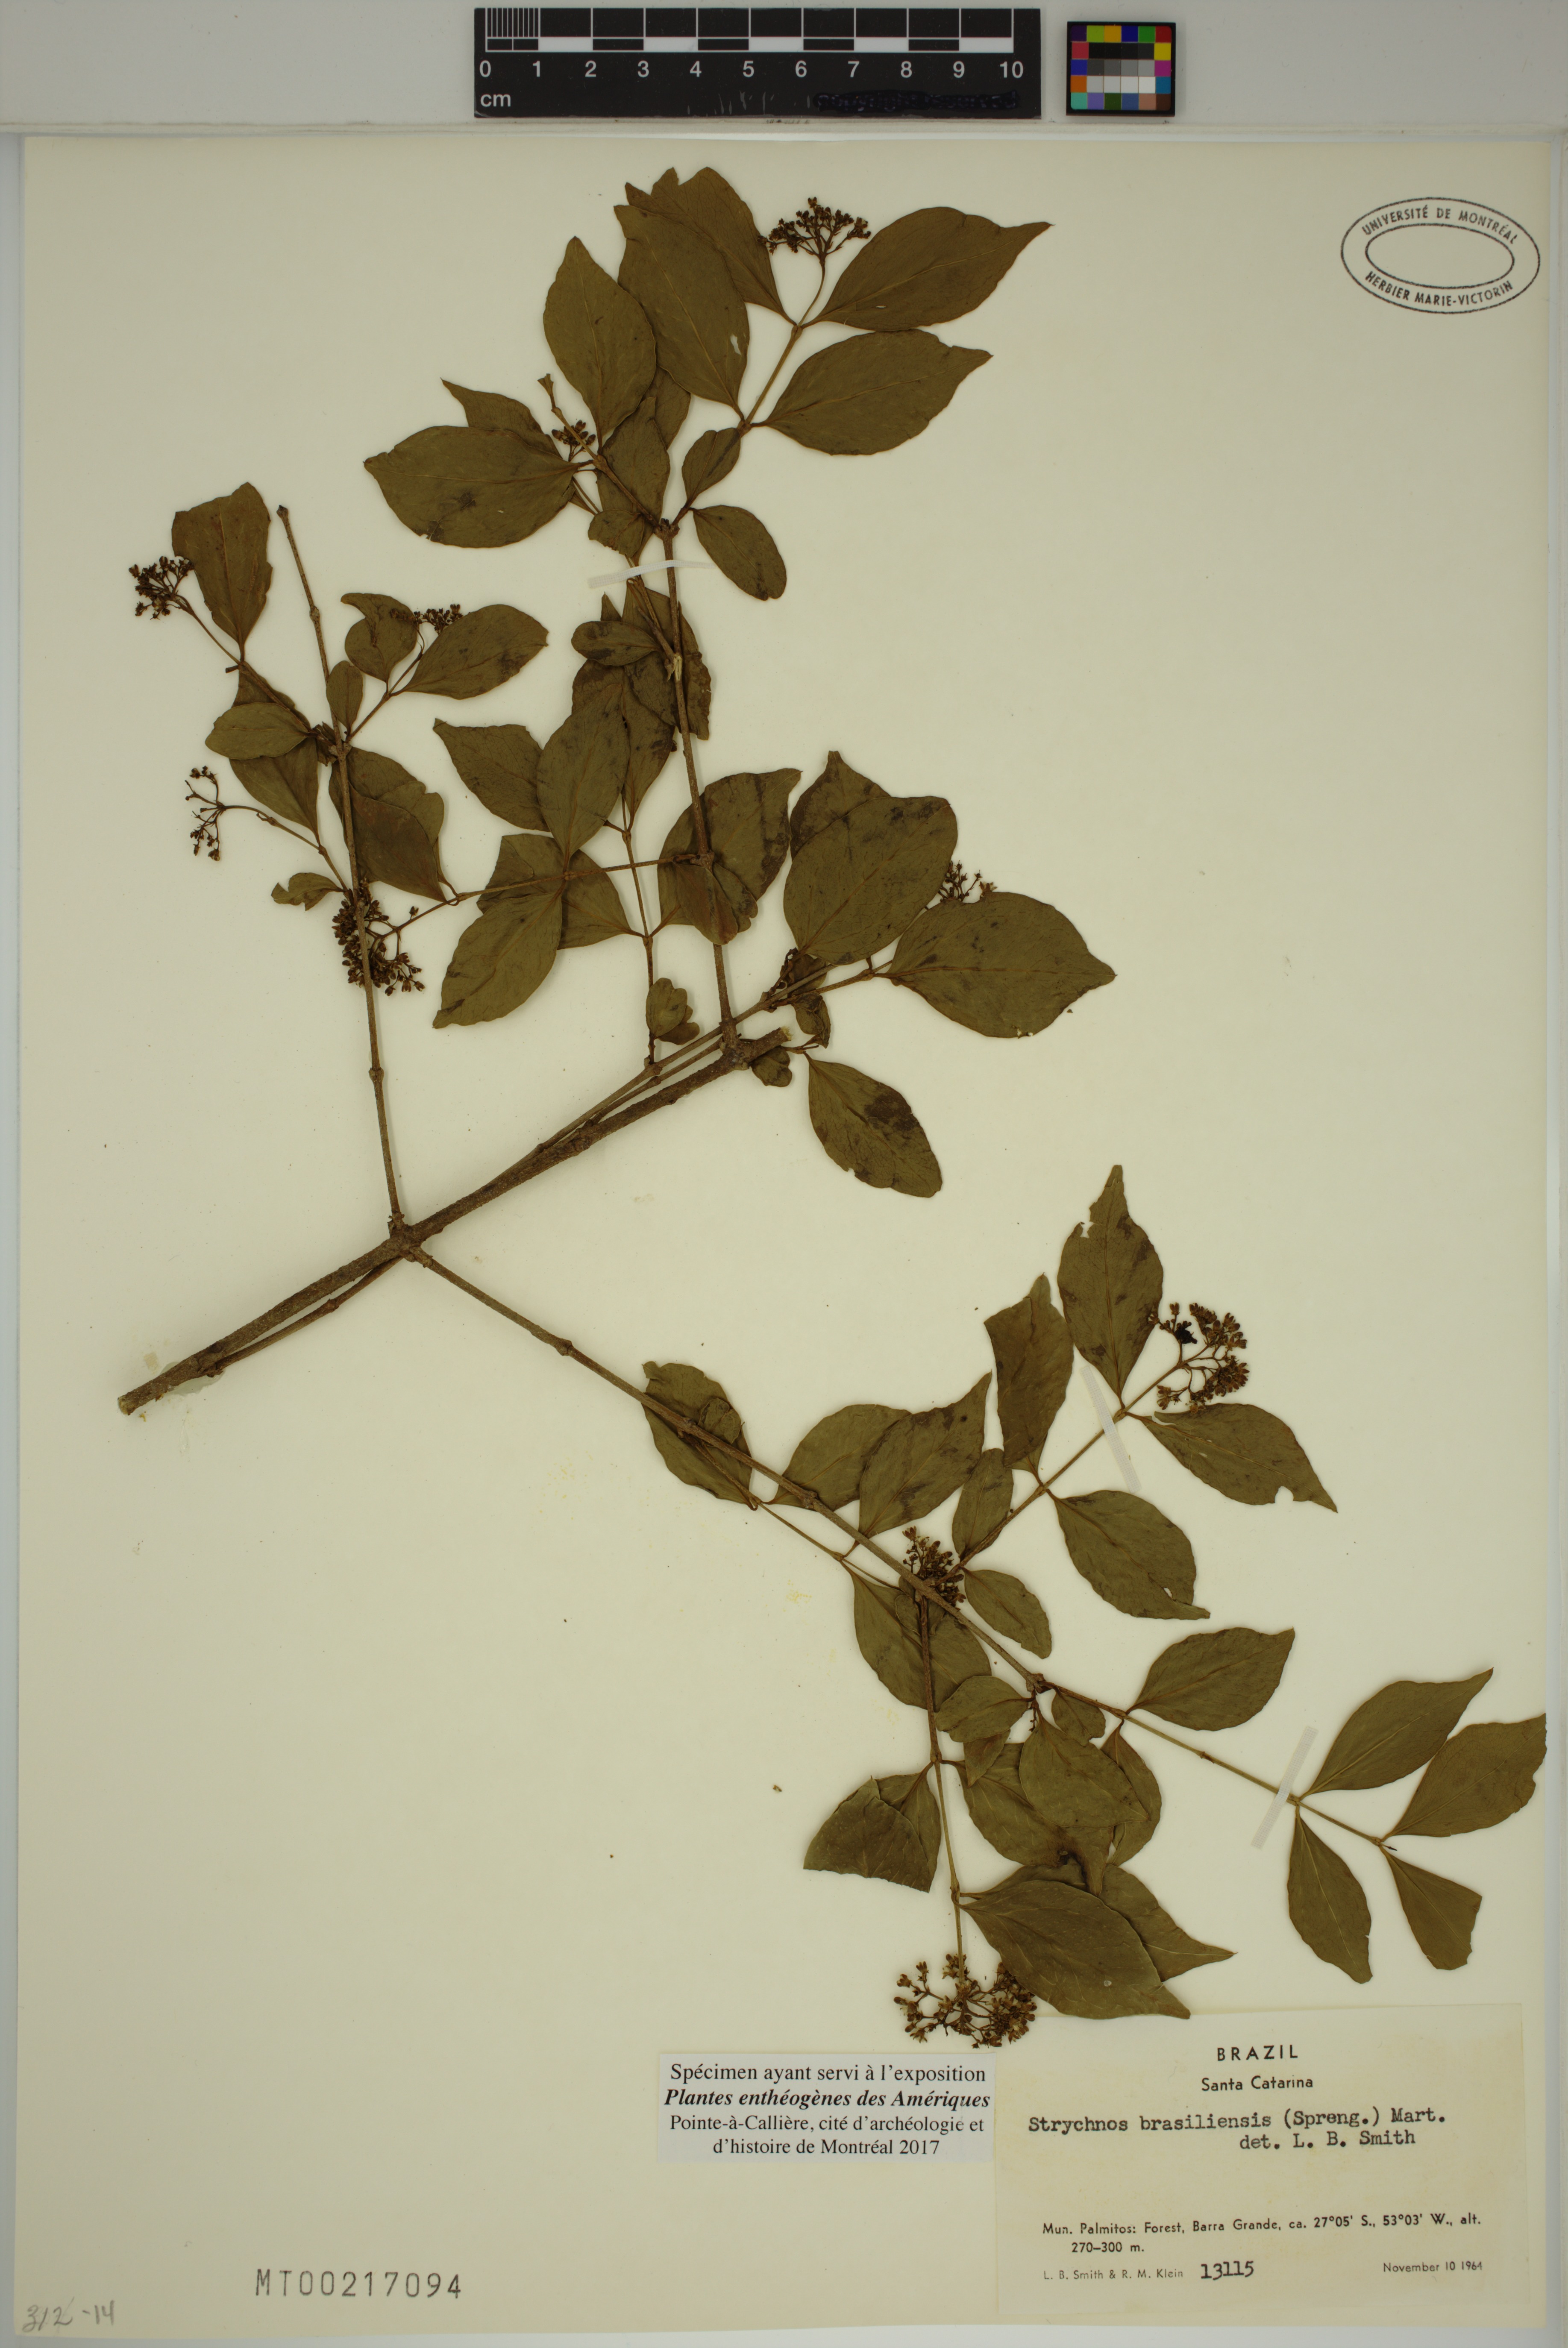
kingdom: Plantae
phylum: Tracheophyta
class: Magnoliopsida
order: Gentianales
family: Loganiaceae
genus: Strychnos
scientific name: Strychnos brasiliensis
